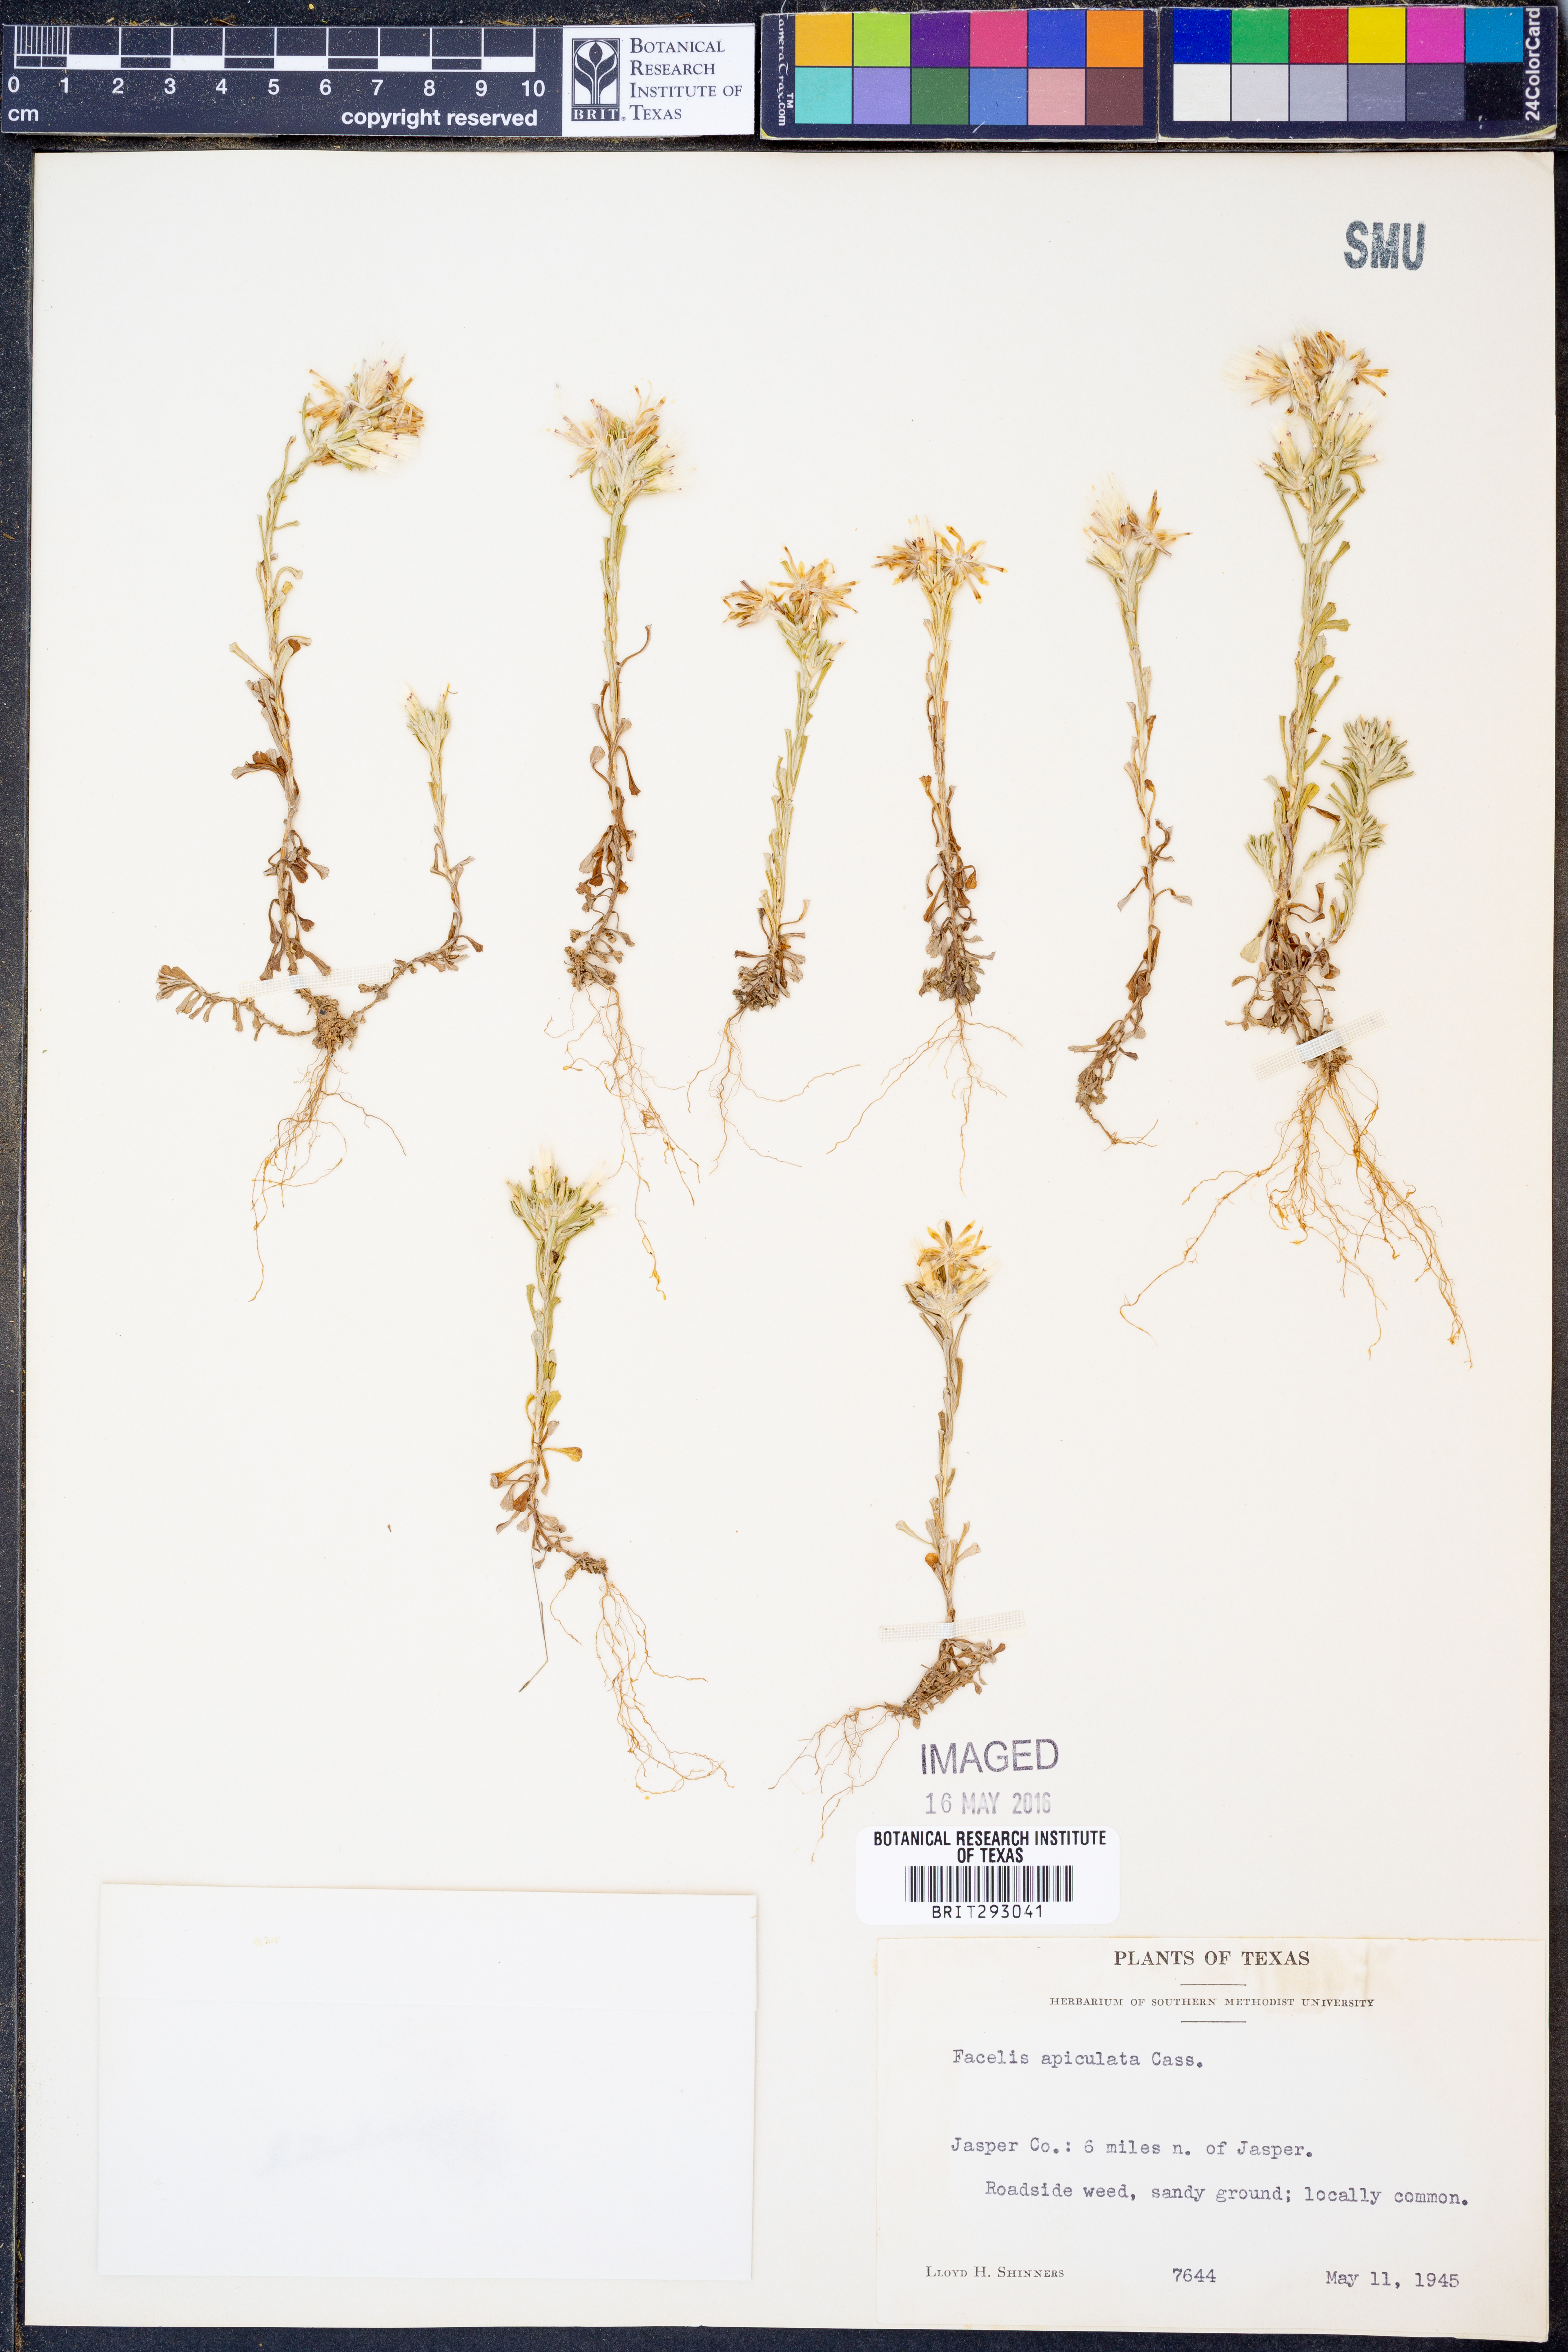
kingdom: Plantae
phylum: Tracheophyta
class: Magnoliopsida
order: Asterales
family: Asteraceae
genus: Facelis
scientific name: Facelis retusa
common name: Annual trampweed
